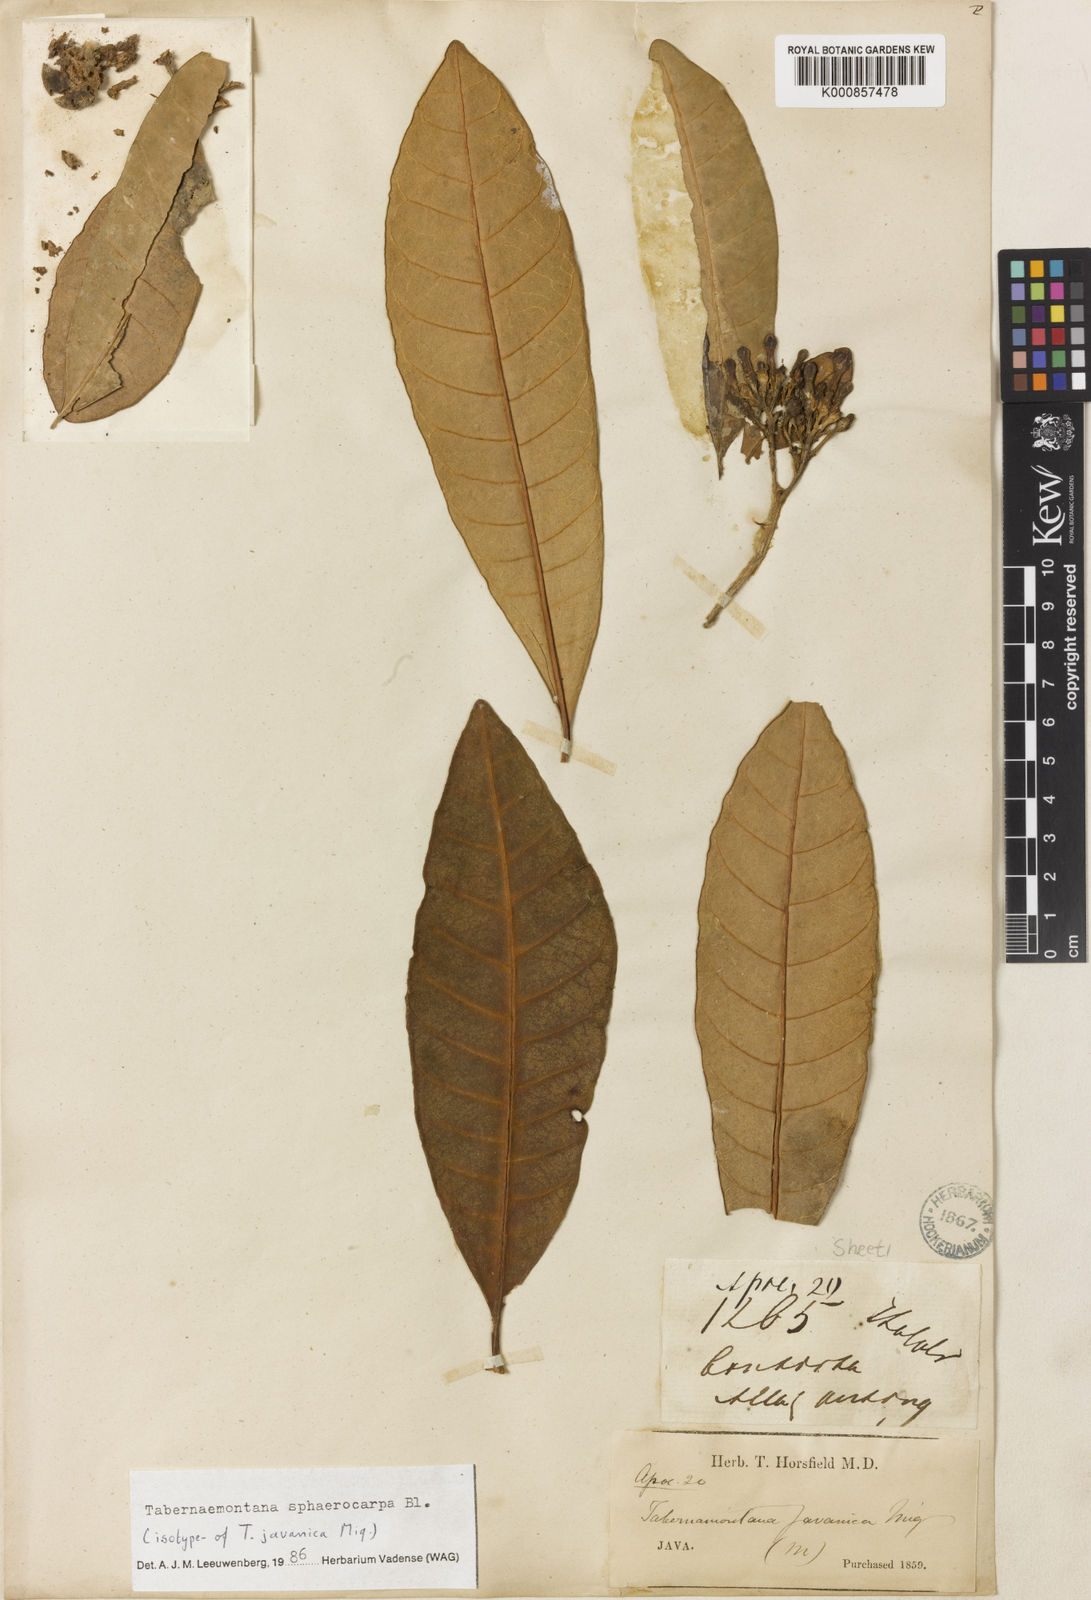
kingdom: Plantae
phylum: Tracheophyta
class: Magnoliopsida
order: Gentianales
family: Apocynaceae
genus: Tabernaemontana
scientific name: Tabernaemontana sphaerocarpa
